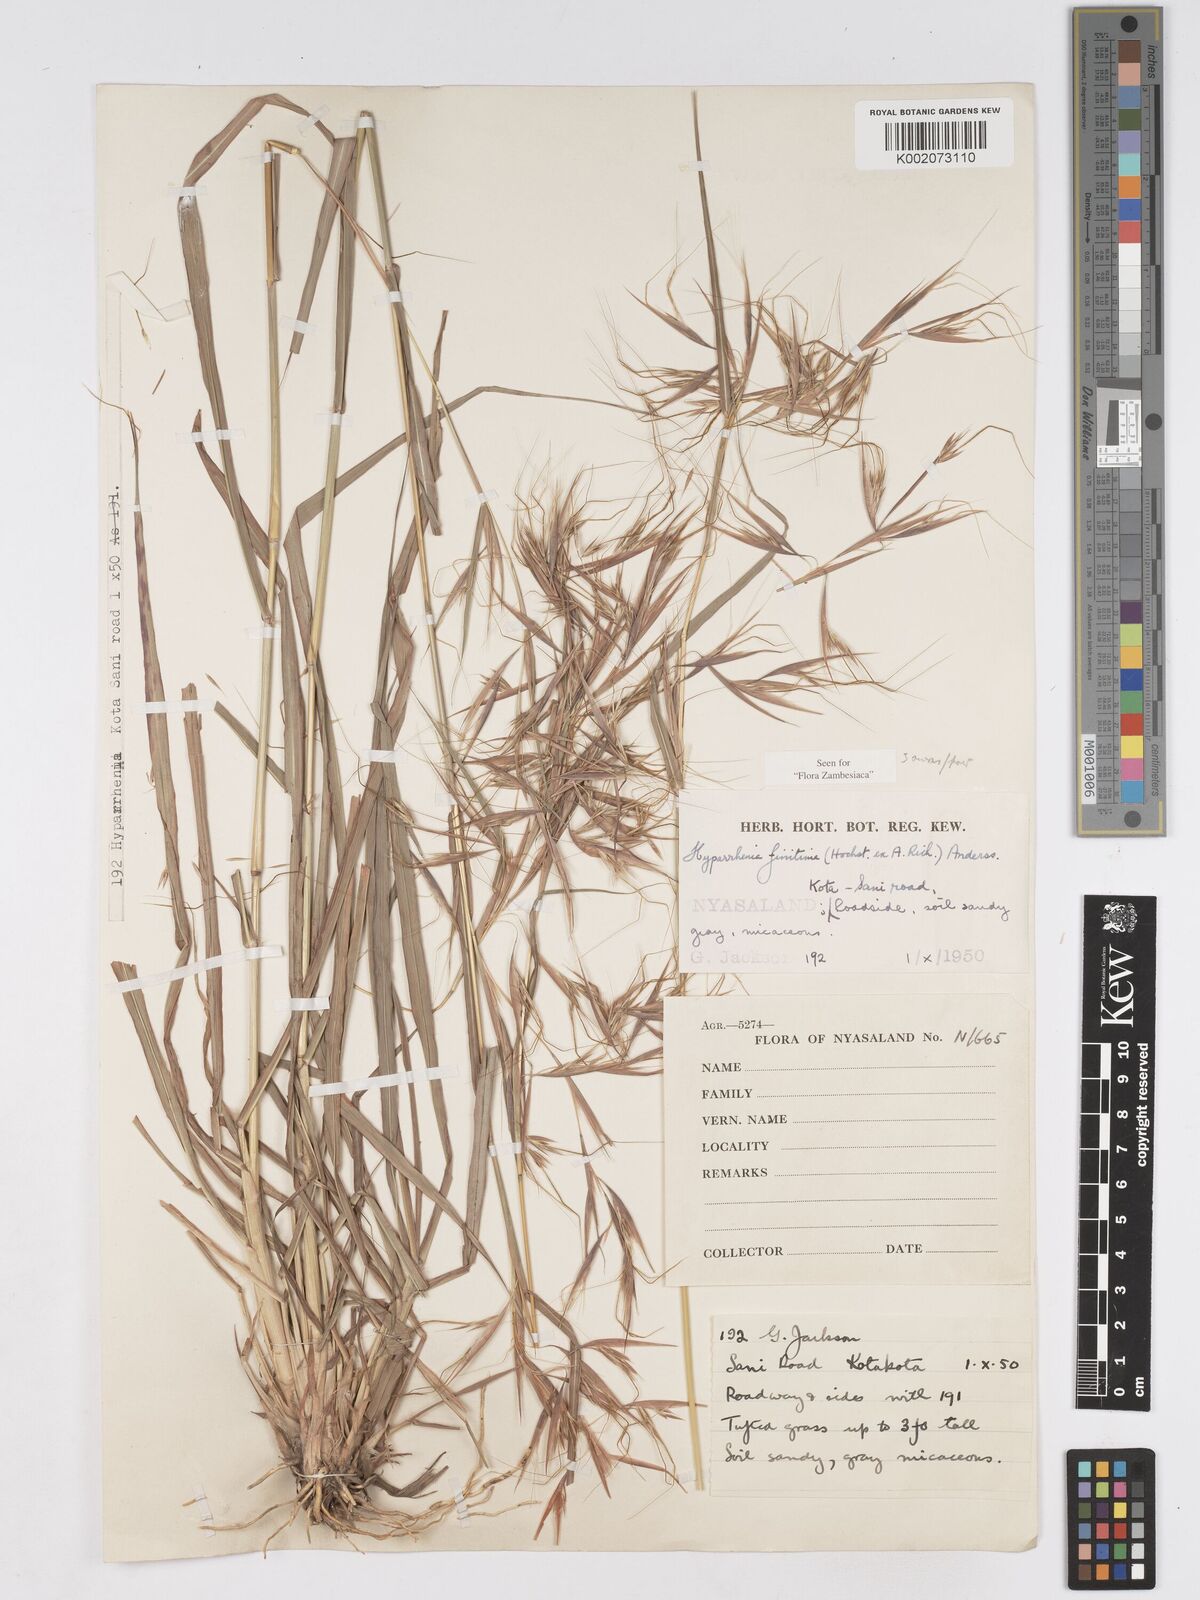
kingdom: Plantae
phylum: Tracheophyta
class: Liliopsida
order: Poales
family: Poaceae
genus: Hyparrhenia
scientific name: Hyparrhenia finitima
